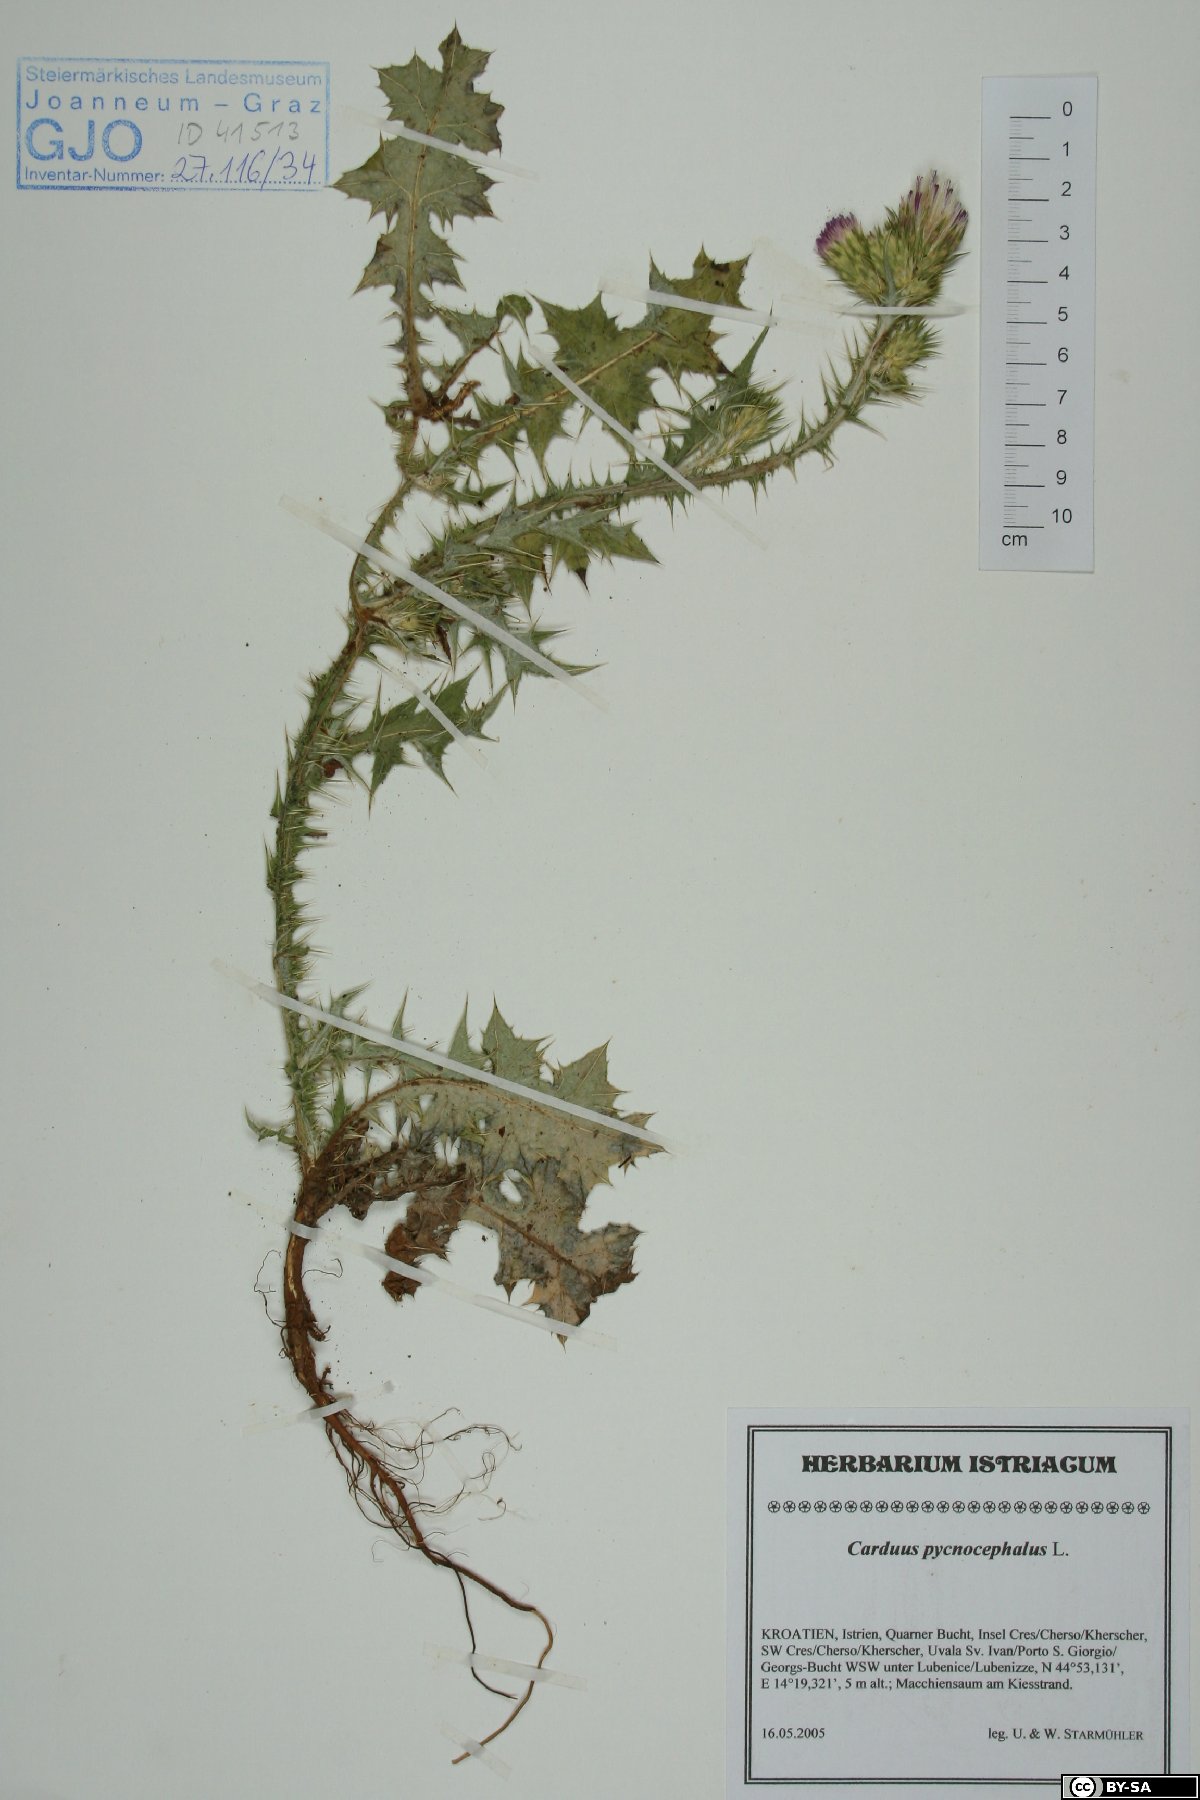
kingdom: Plantae
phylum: Tracheophyta
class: Magnoliopsida
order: Asterales
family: Asteraceae
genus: Carduus
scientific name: Carduus pycnocephalus
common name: Plymouth thistle
